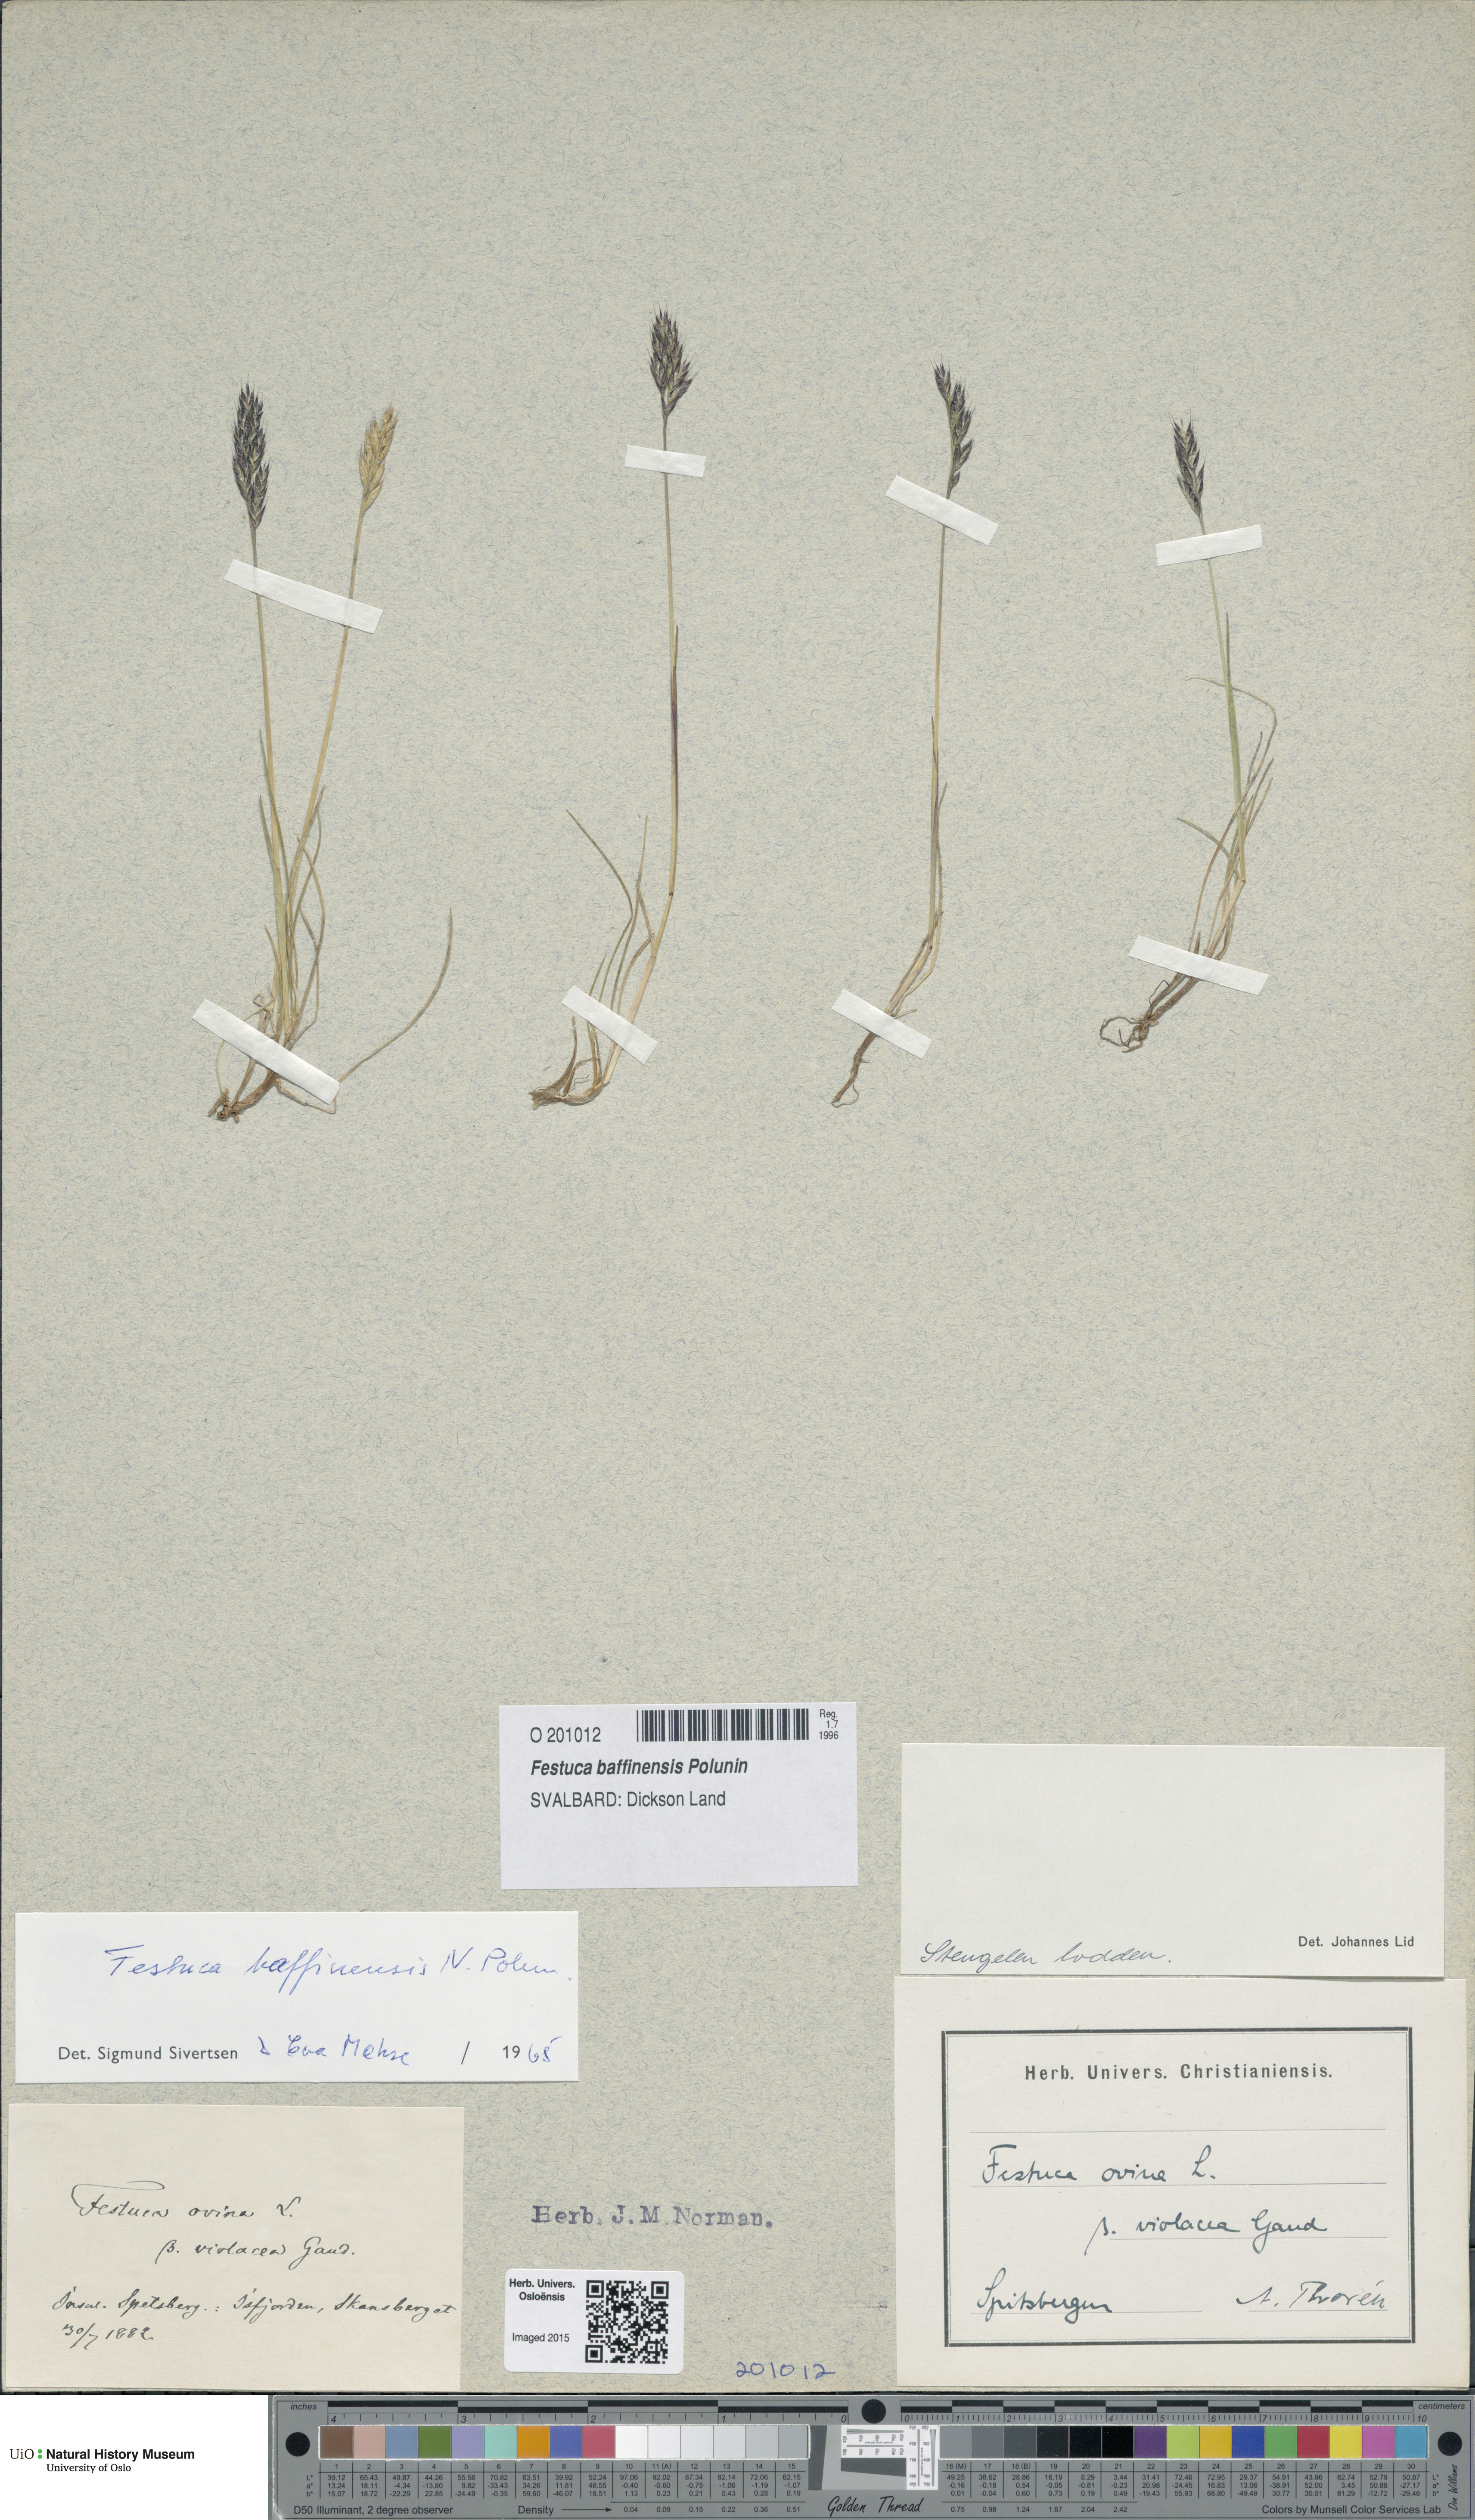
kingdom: Plantae
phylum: Tracheophyta
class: Liliopsida
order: Poales
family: Poaceae
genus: Festuca
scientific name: Festuca baffinensis
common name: Baffin island fescue
